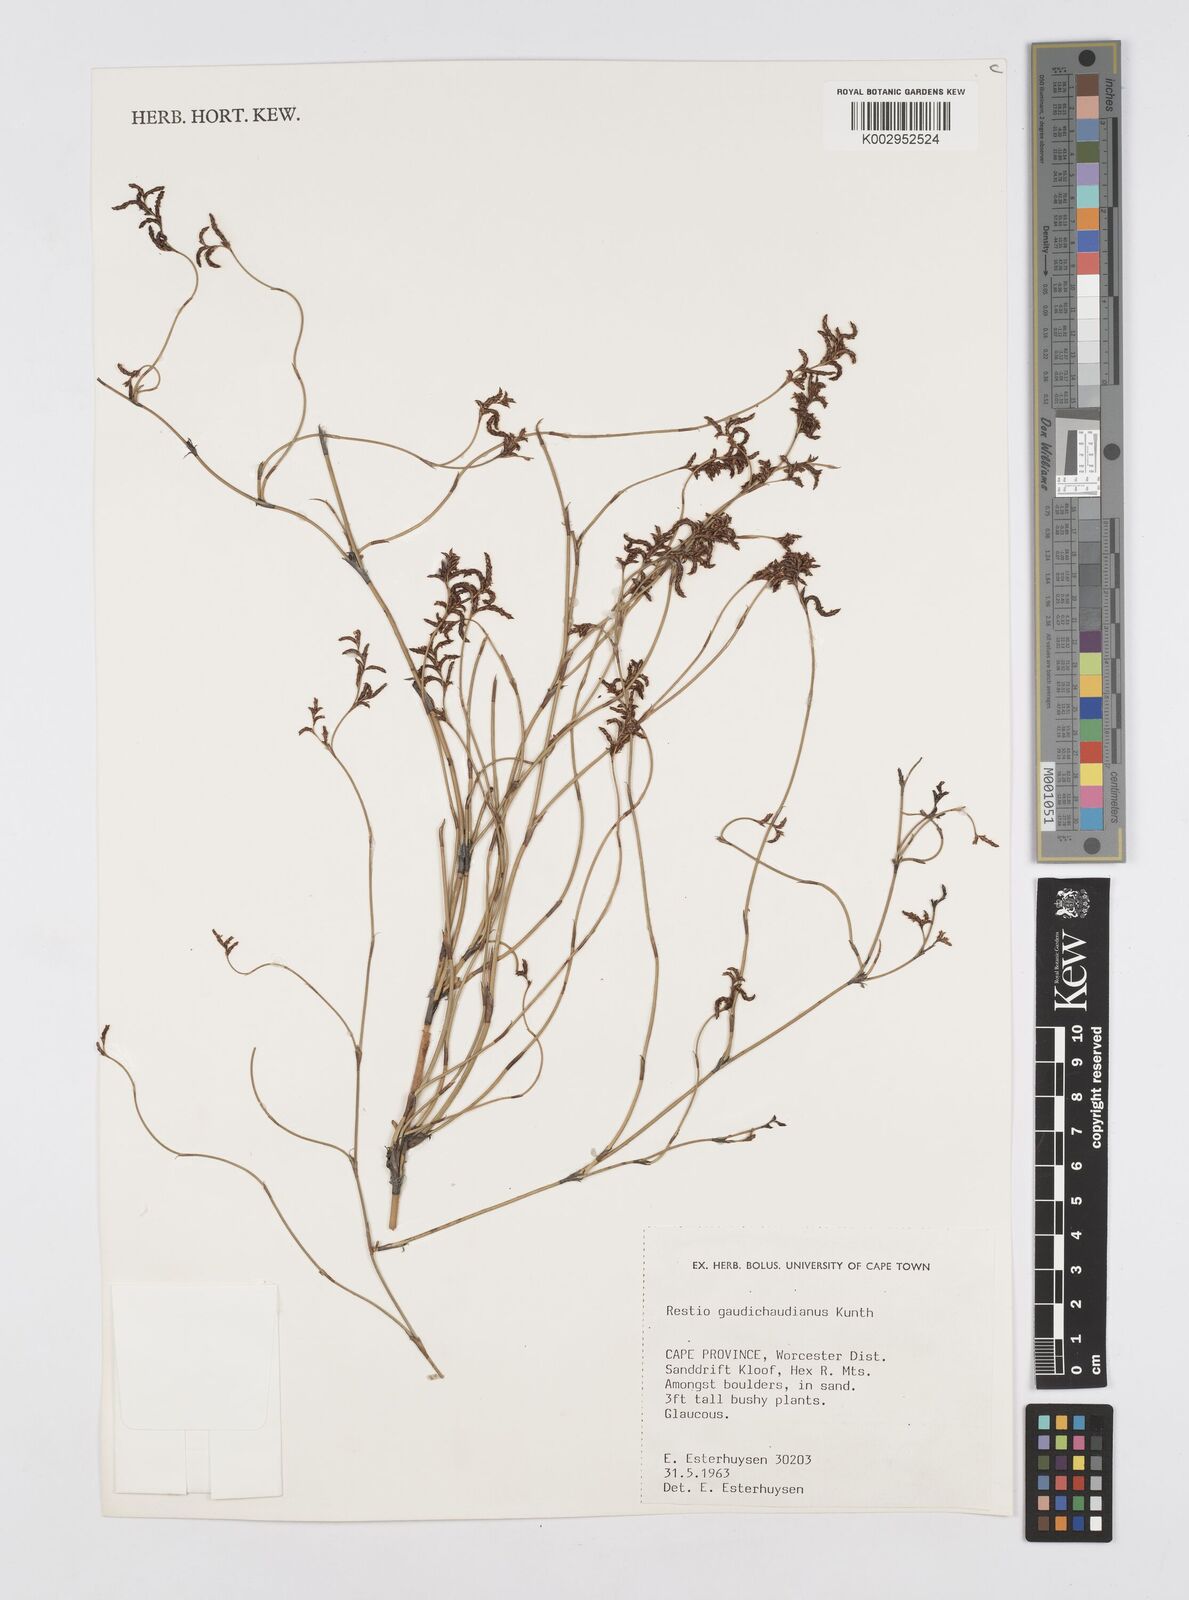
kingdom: Plantae
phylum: Tracheophyta
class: Liliopsida
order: Poales
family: Restionaceae
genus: Restio
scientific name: Restio gaudichaudianus
